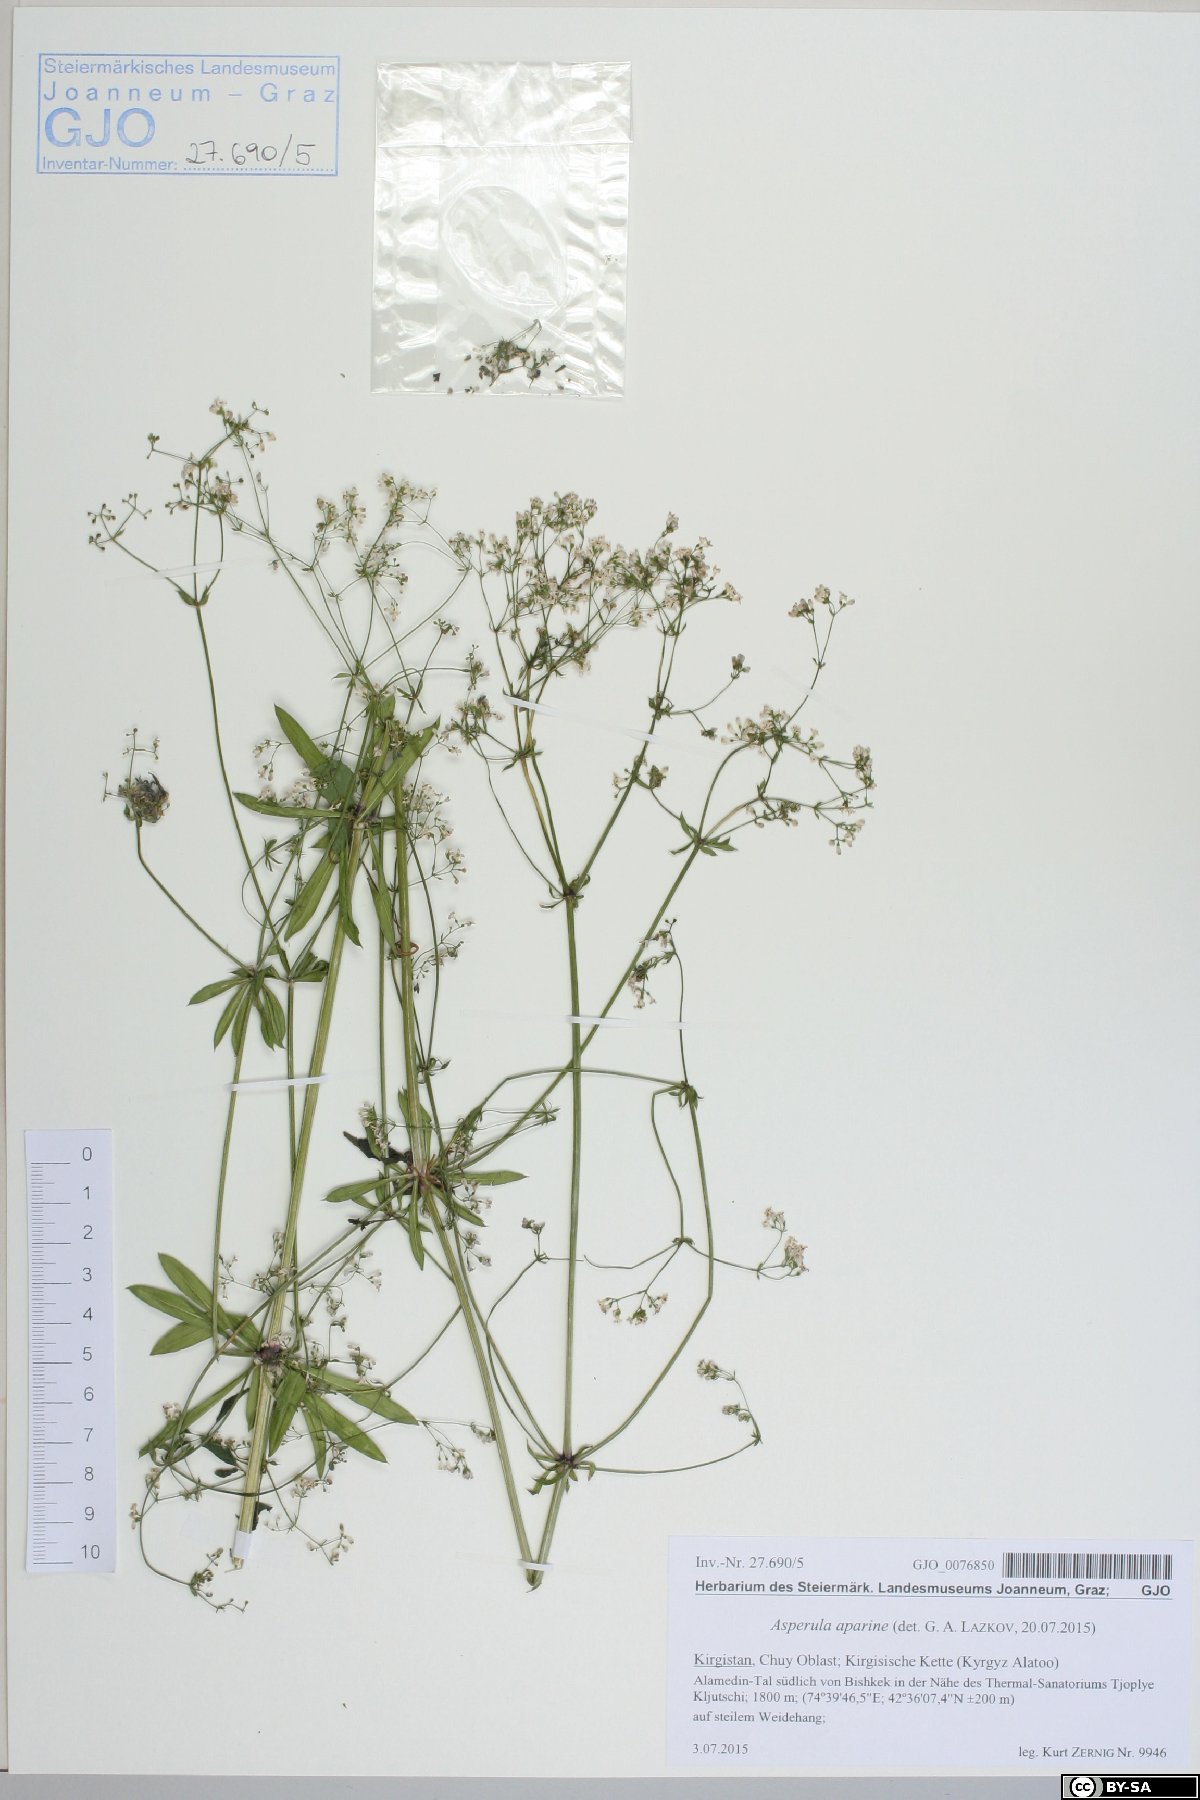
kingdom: Plantae
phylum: Tracheophyta
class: Magnoliopsida
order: Gentianales
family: Rubiaceae
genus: Galium
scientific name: Galium pseudorivale
